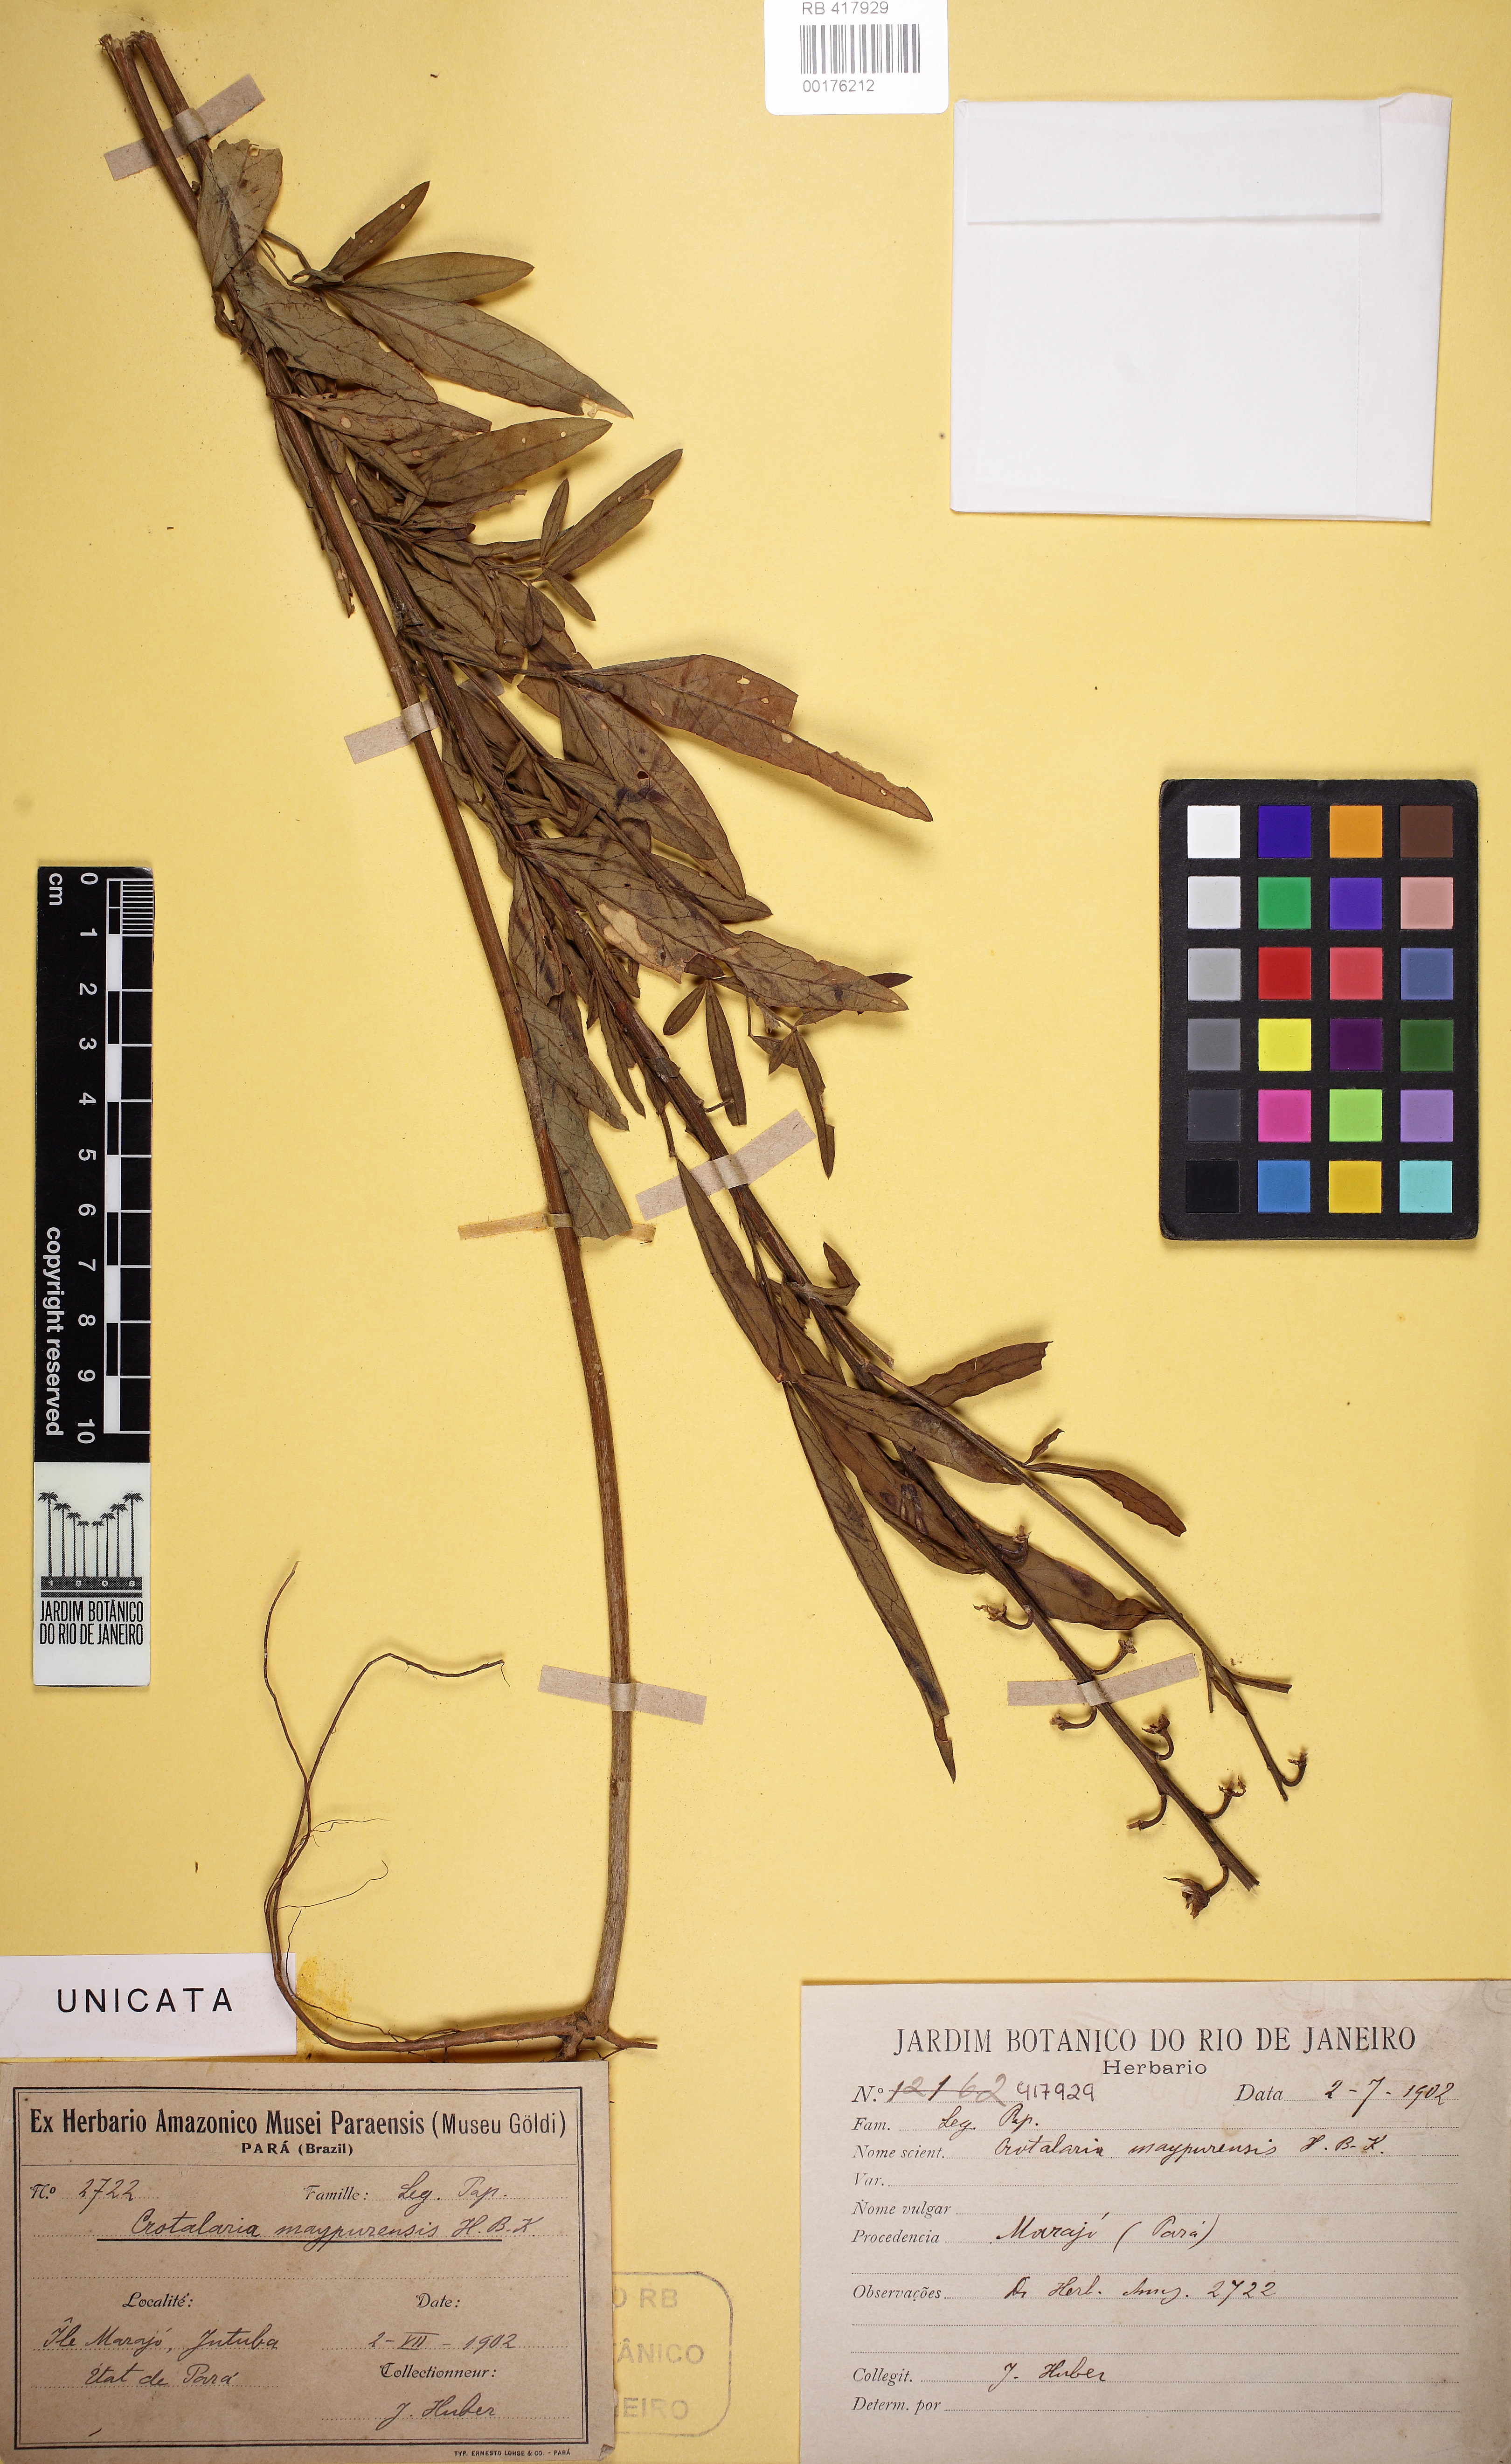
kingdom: Plantae
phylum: Tracheophyta
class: Magnoliopsida
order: Fabales
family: Fabaceae
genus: Crotalaria
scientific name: Crotalaria maypurensis
